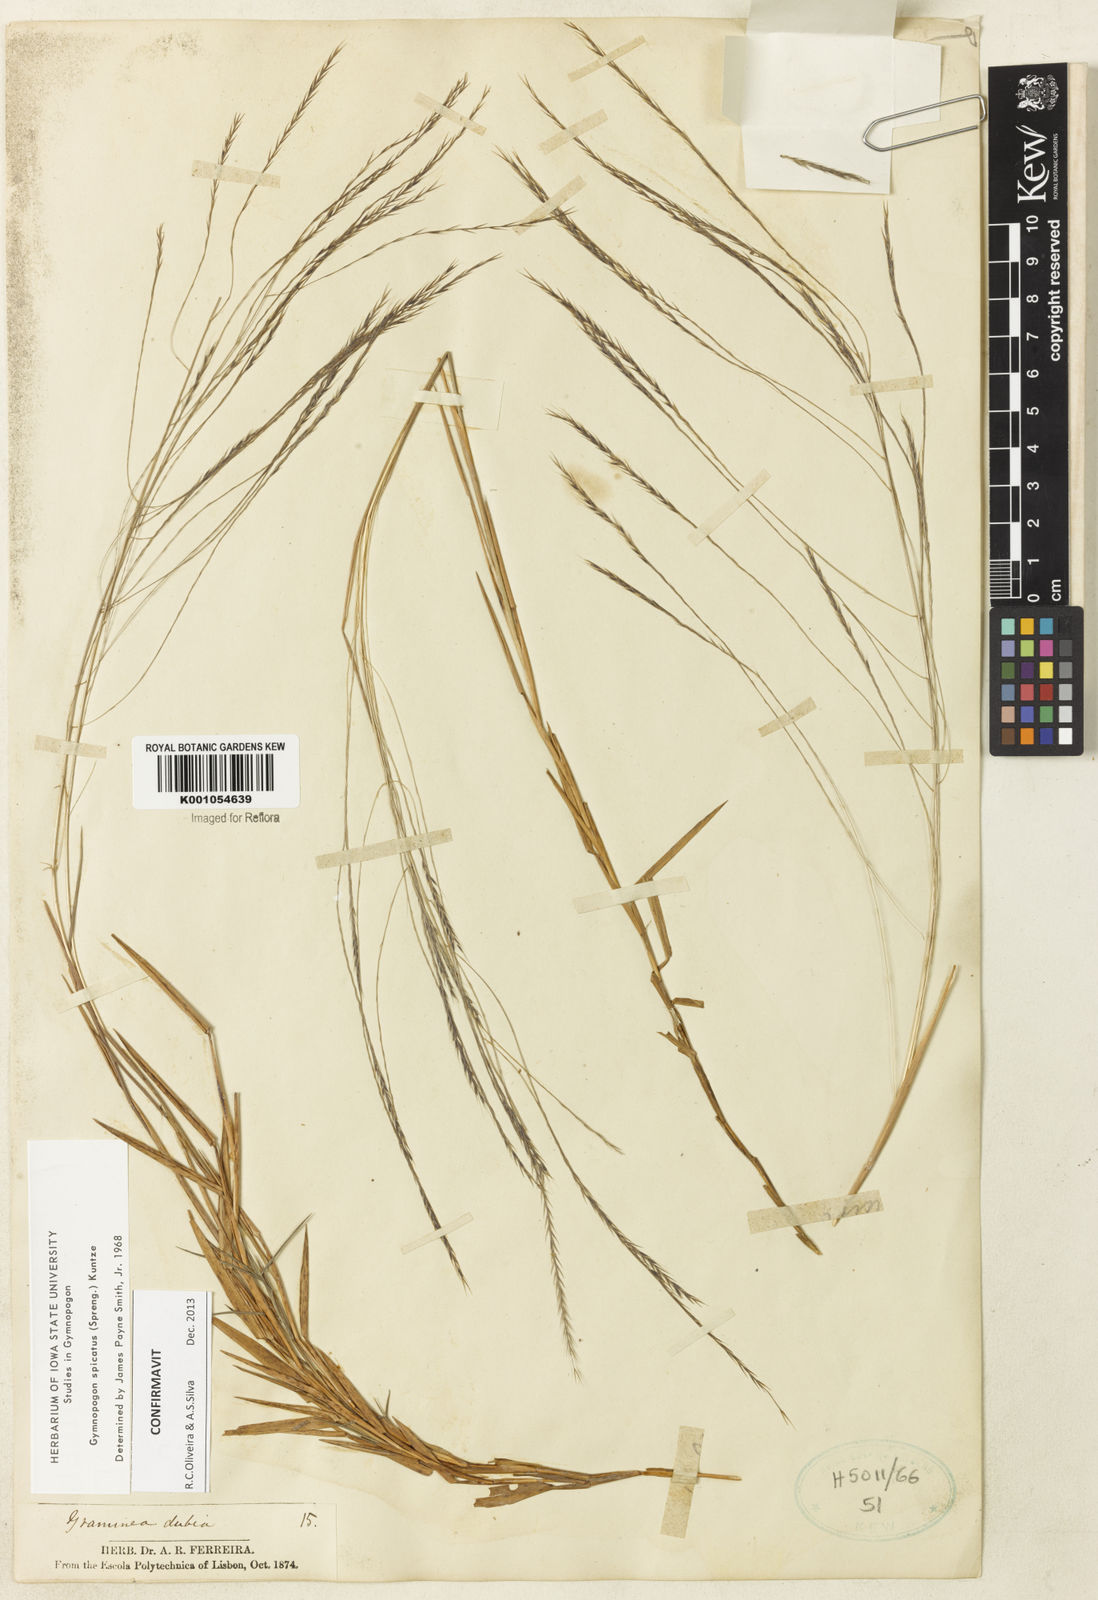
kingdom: Plantae
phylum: Tracheophyta
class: Liliopsida
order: Poales
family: Poaceae
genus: Gymnopogon
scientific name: Gymnopogon spicatus
